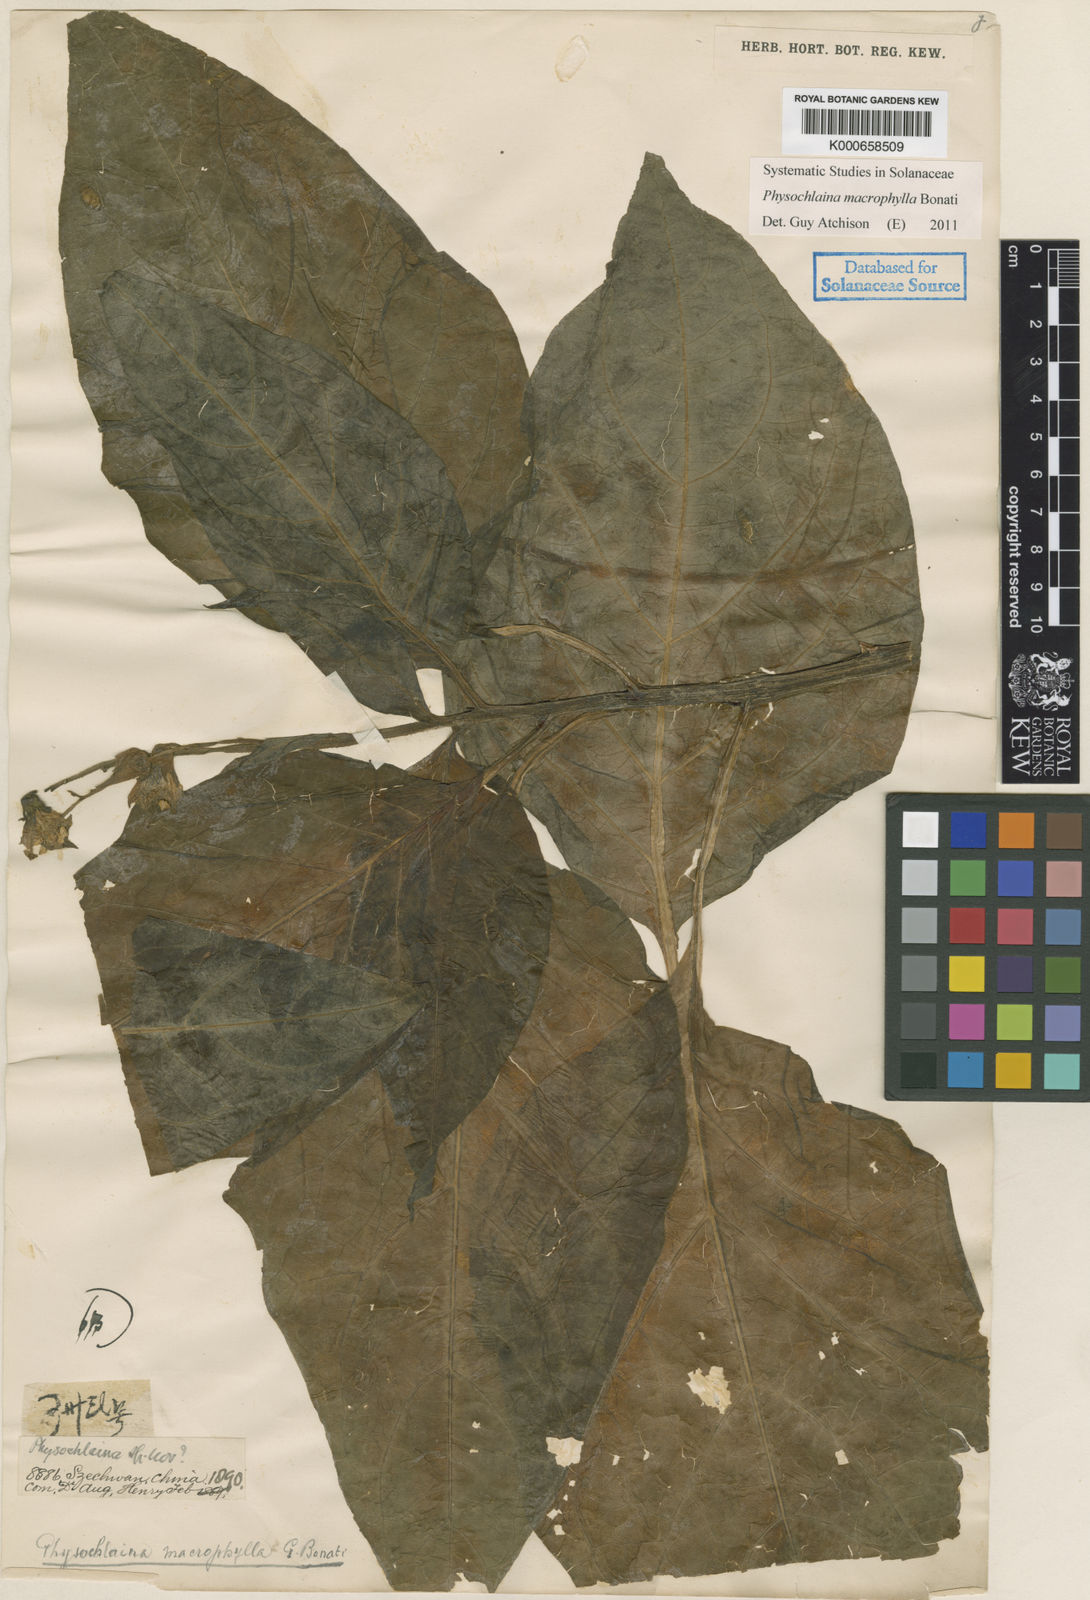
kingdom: Plantae
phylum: Tracheophyta
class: Magnoliopsida
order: Solanales
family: Solanaceae
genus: Physochlaina
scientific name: Physochlaina macrophylla
